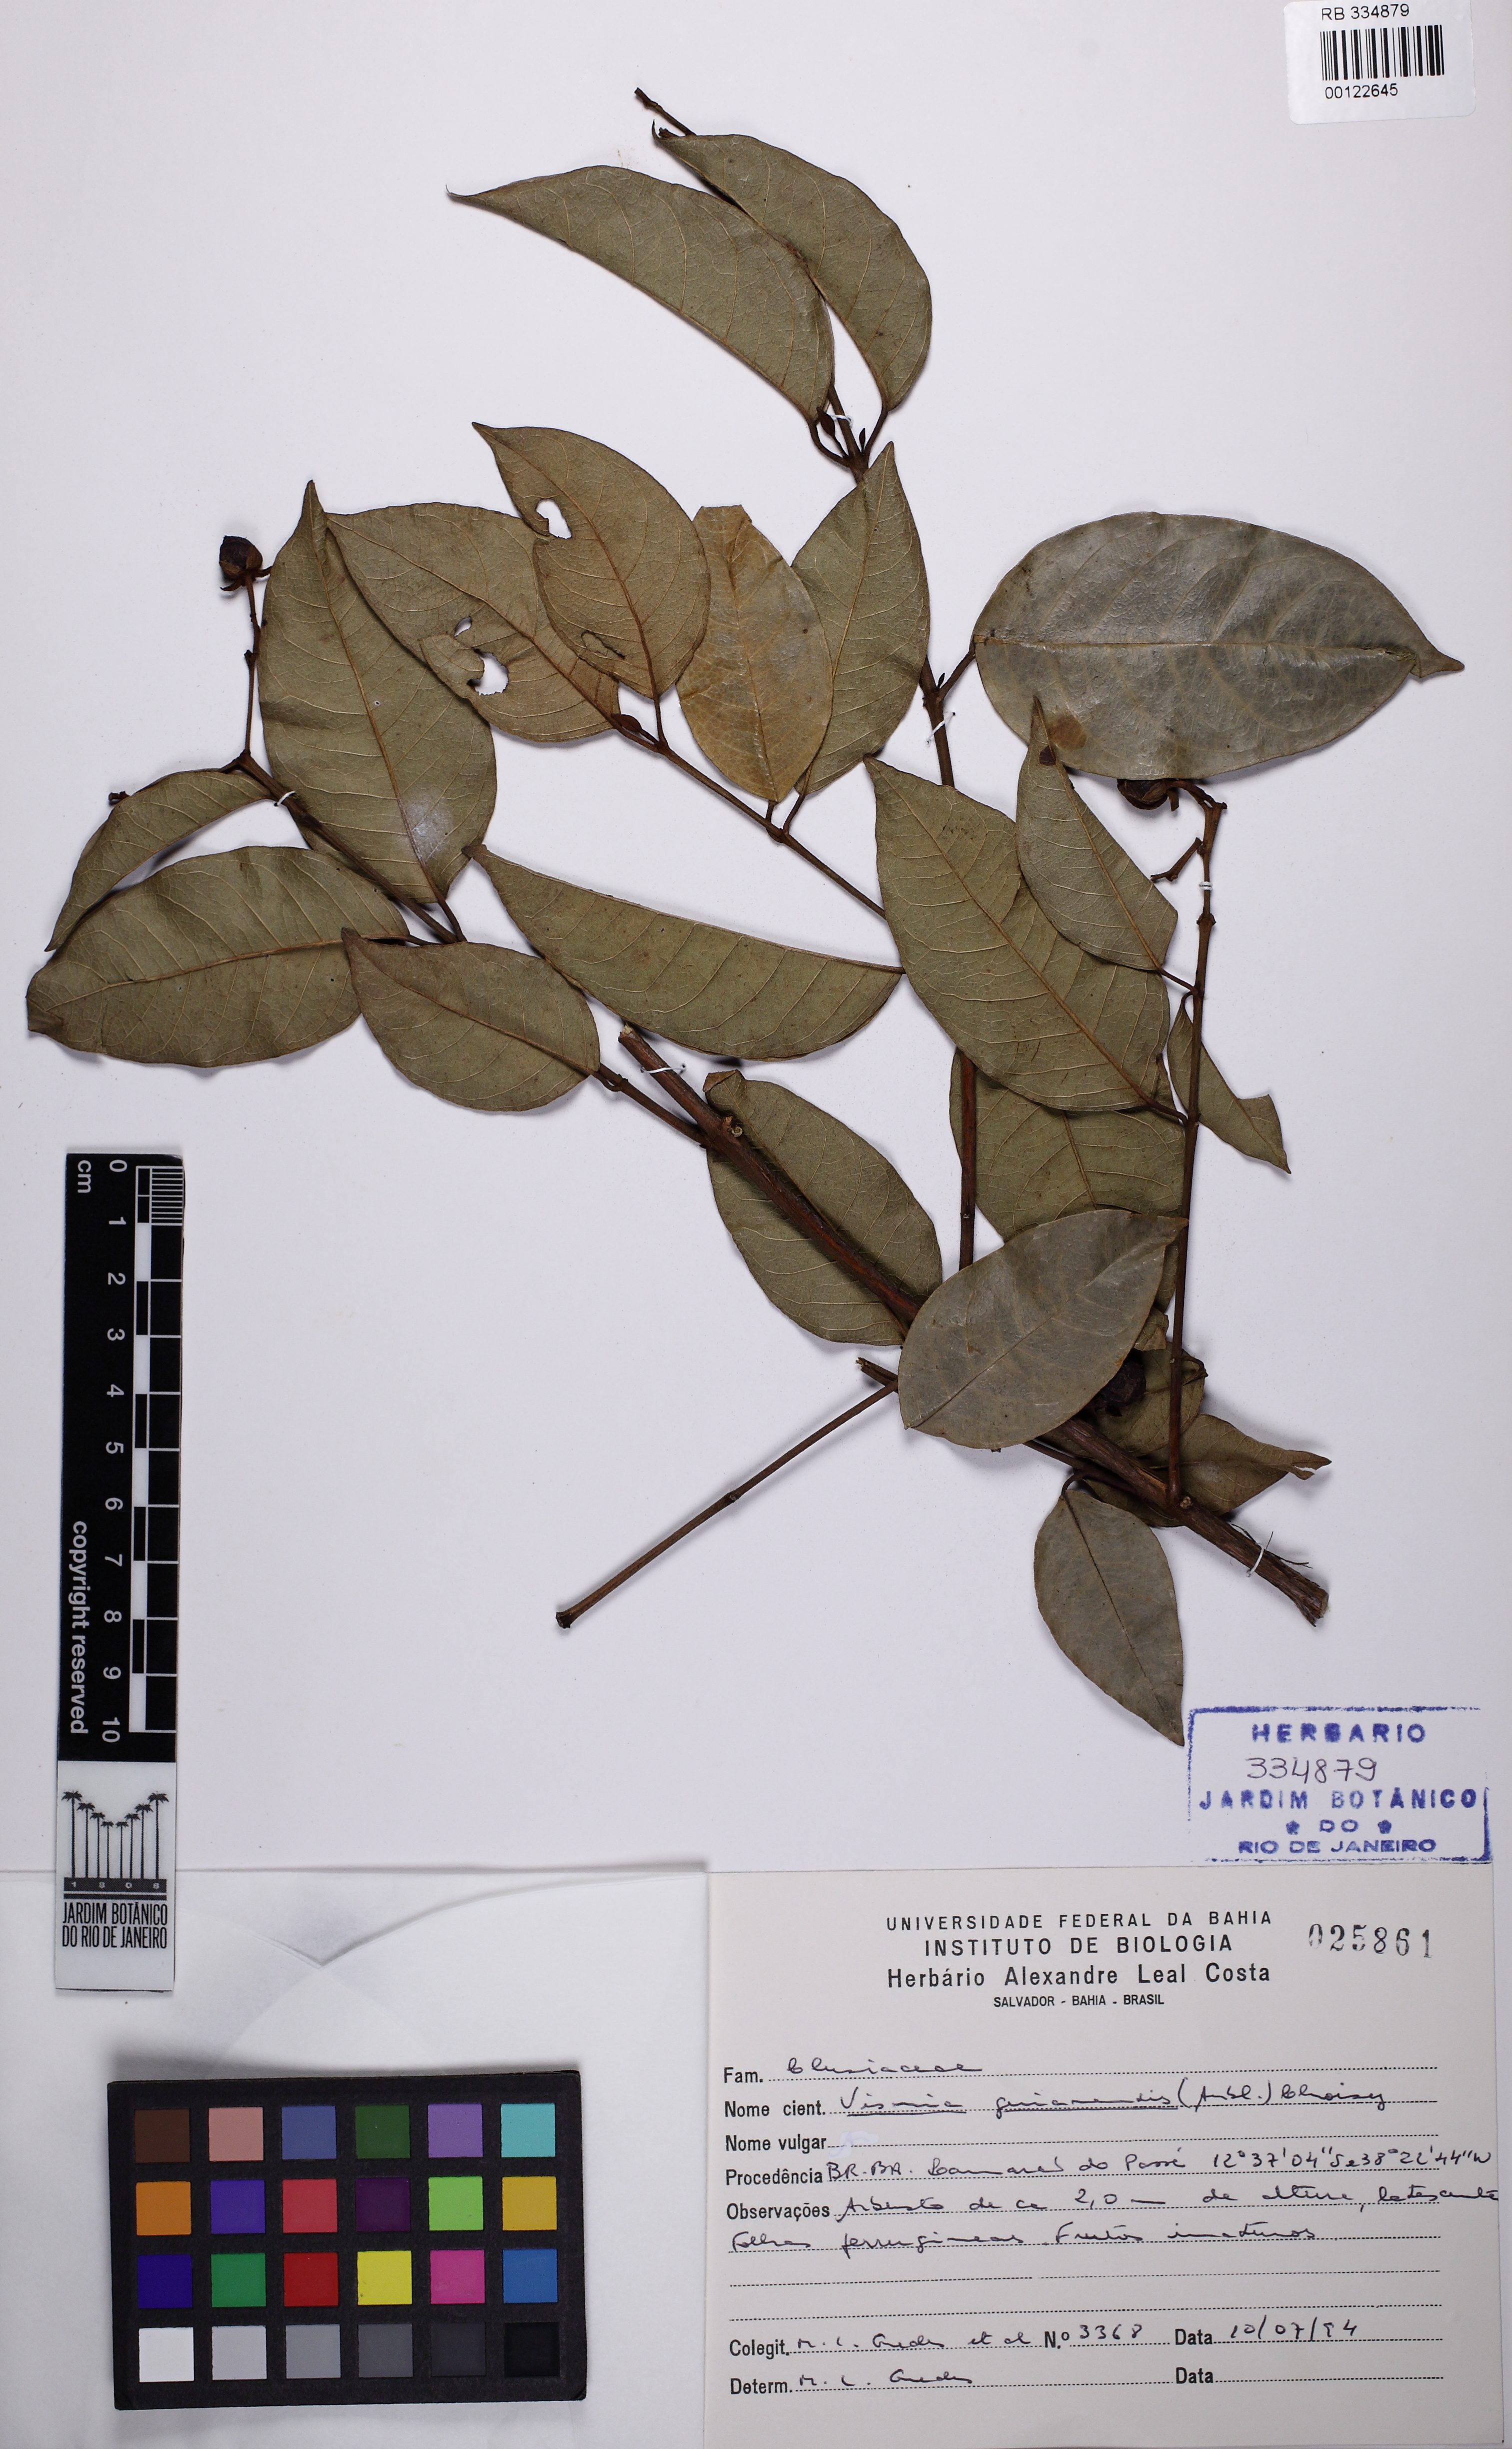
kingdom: Plantae
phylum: Tracheophyta
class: Magnoliopsida
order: Malpighiales
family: Hypericaceae
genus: Vismia
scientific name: Vismia guianensis
